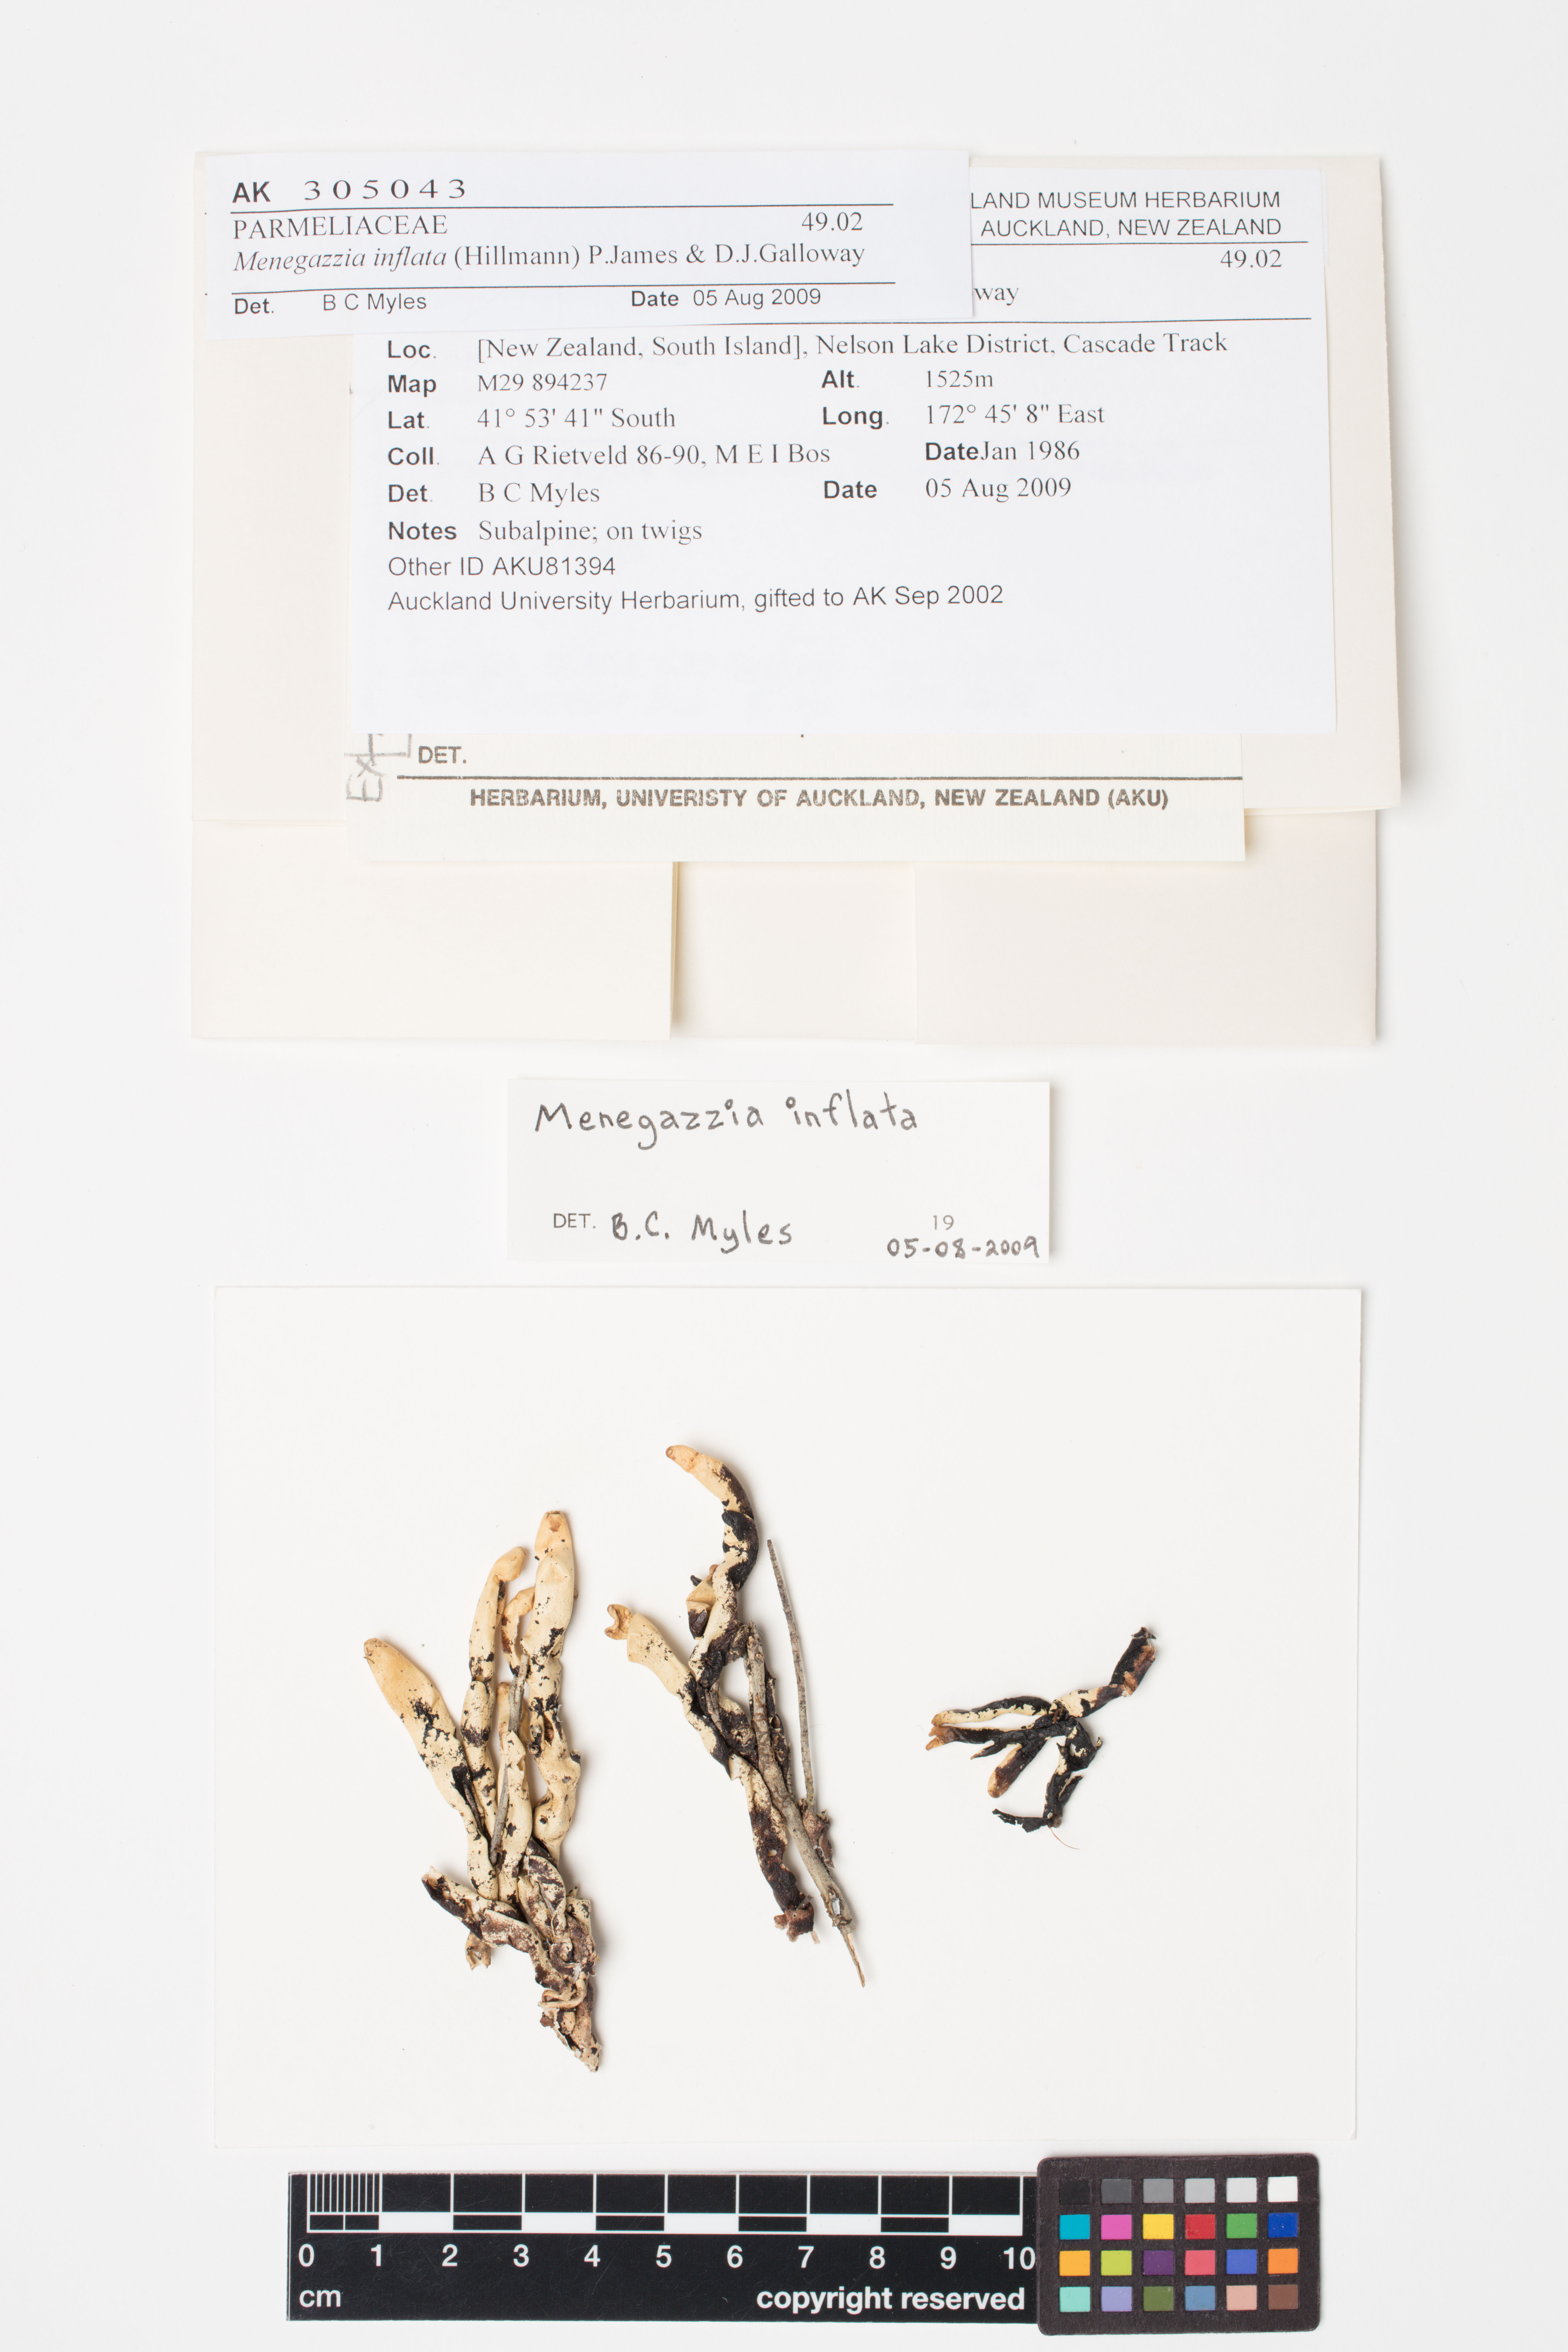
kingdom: Fungi
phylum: Ascomycota
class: Lecanoromycetes
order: Lecanorales
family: Parmeliaceae
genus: Menegazzia
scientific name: Menegazzia
